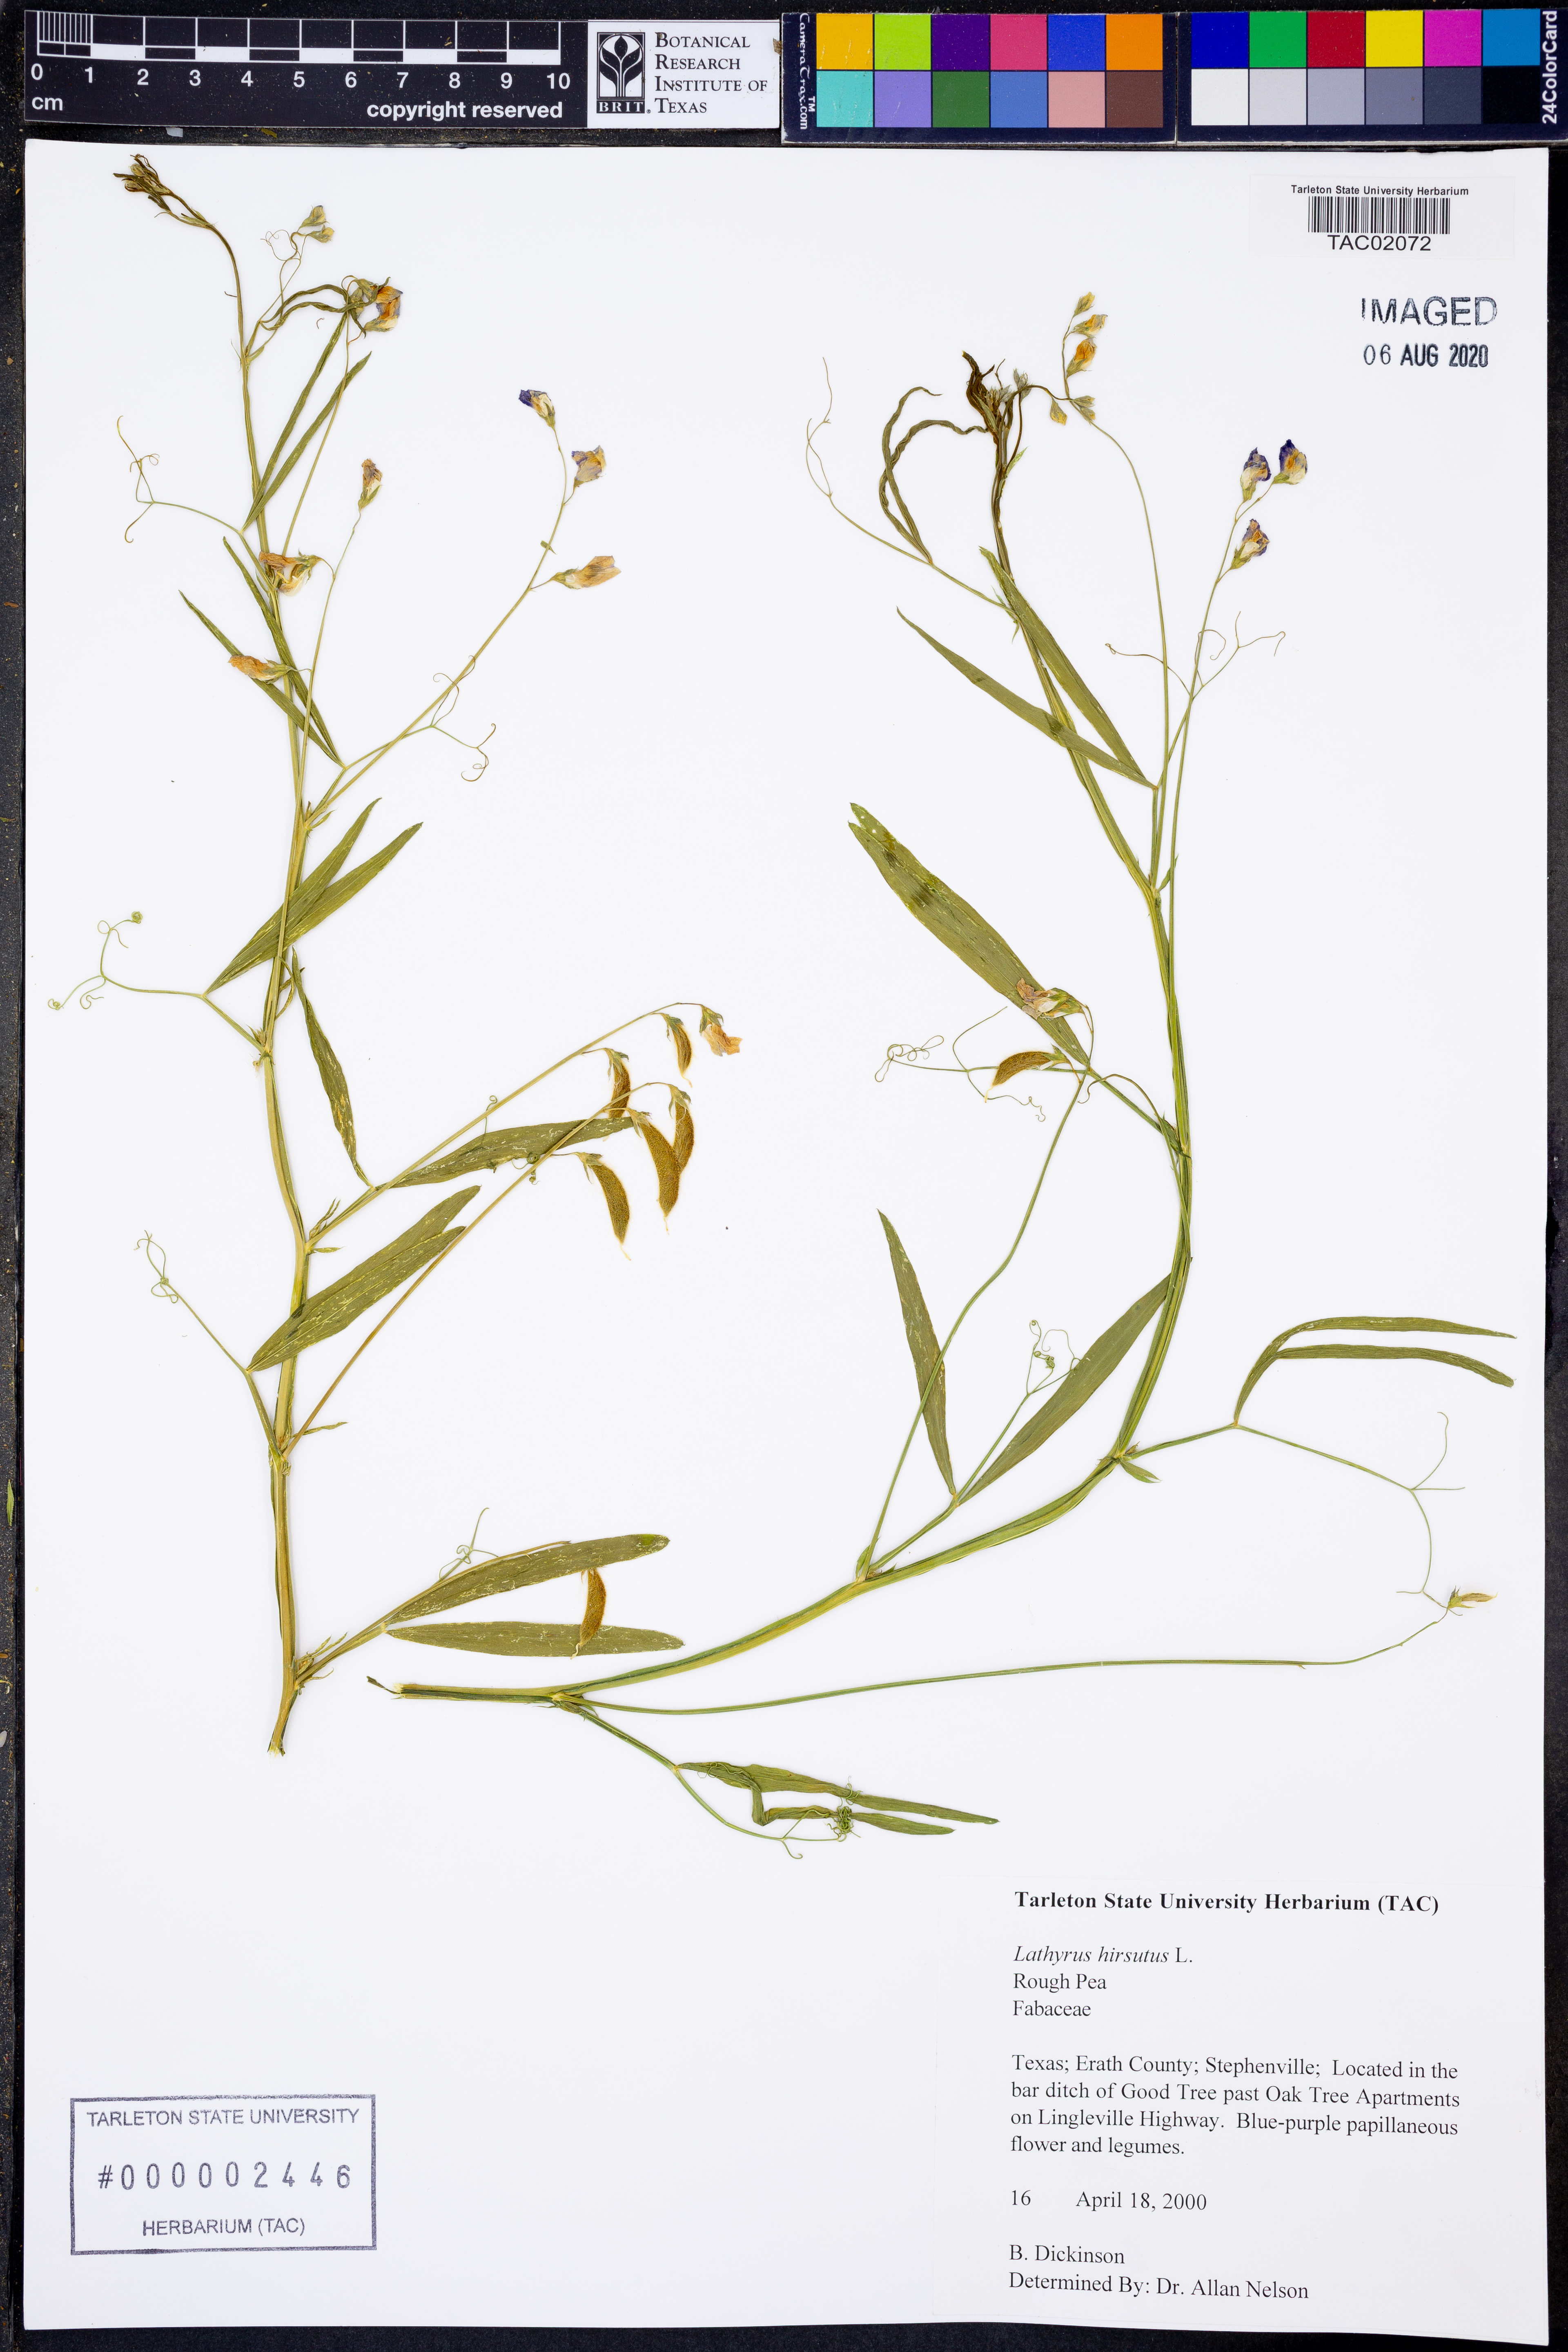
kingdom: Plantae
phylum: Tracheophyta
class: Magnoliopsida
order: Fabales
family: Fabaceae
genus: Lathyrus
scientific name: Lathyrus hirsutus
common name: Hairy vetchling
